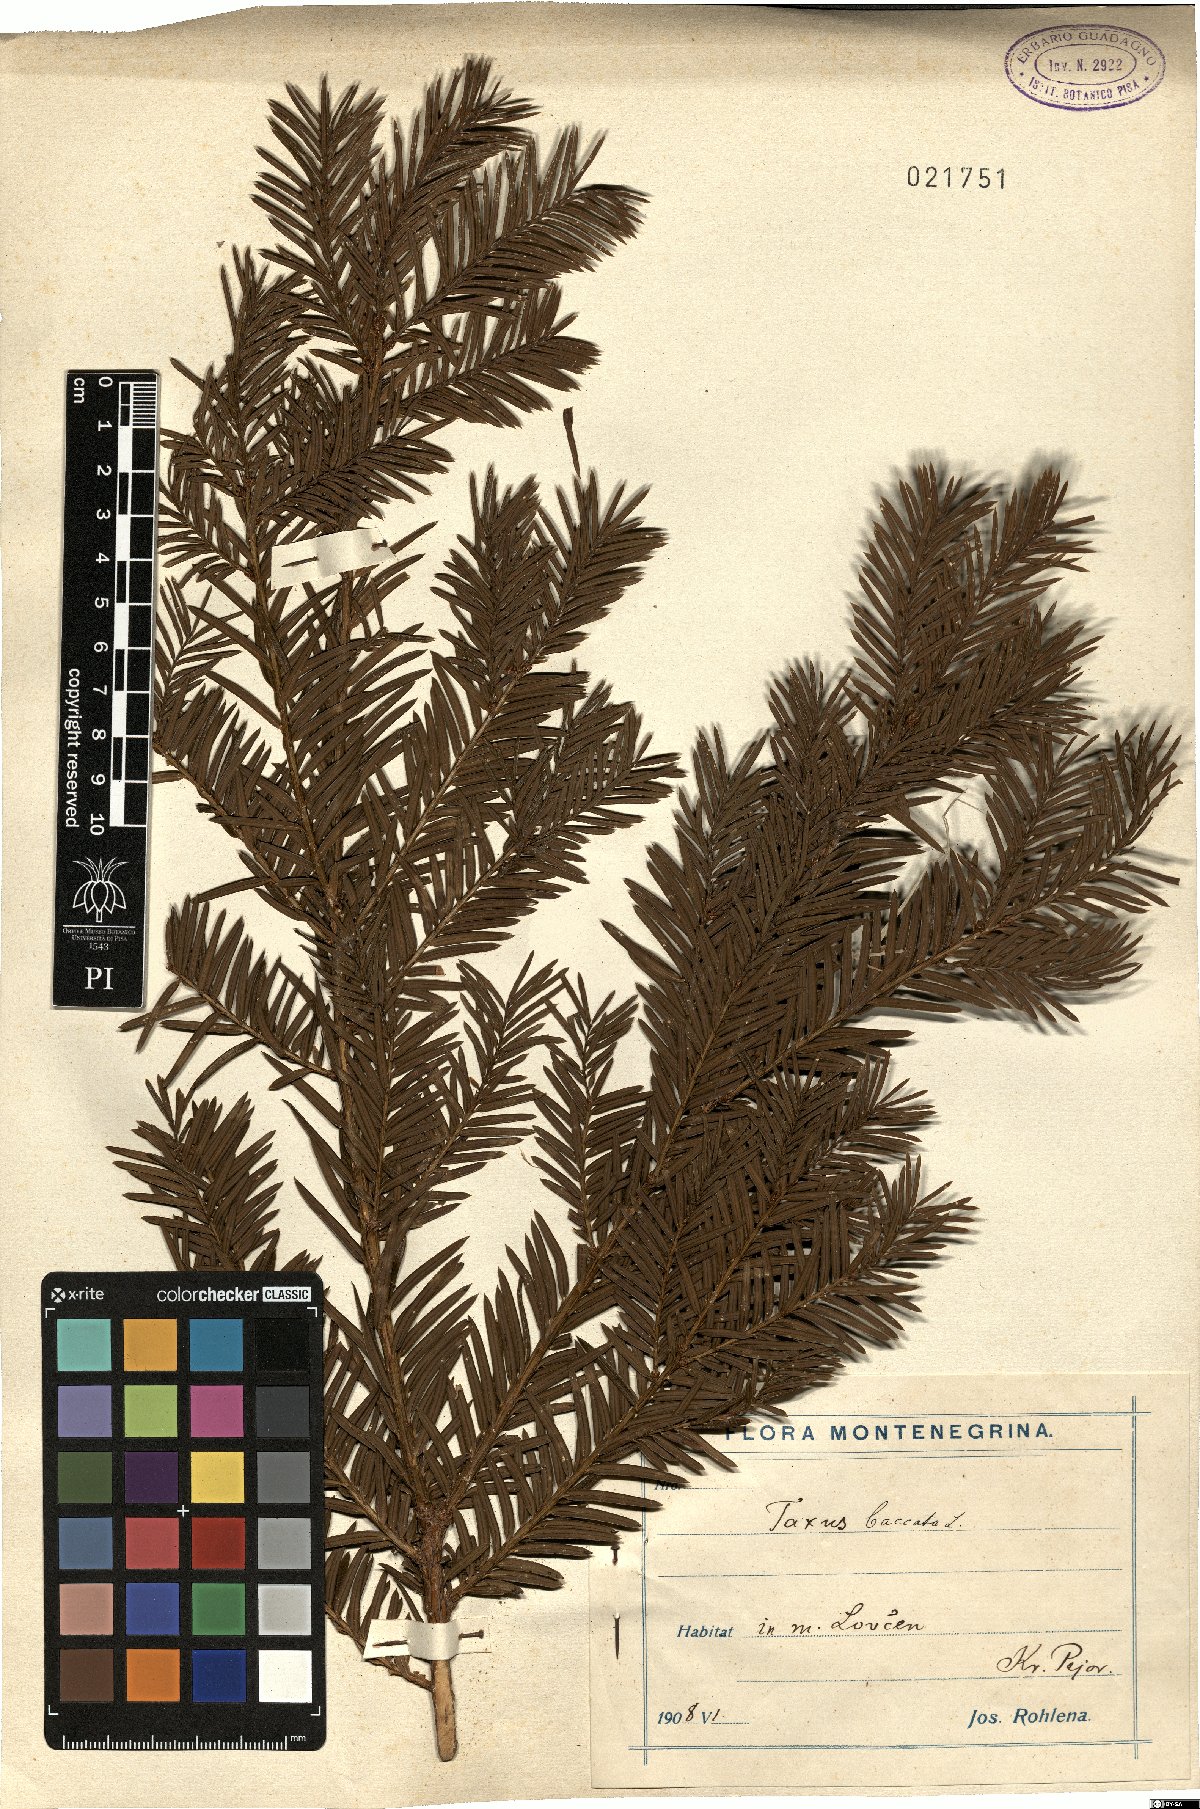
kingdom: Plantae
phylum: Tracheophyta
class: Pinopsida
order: Pinales
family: Taxaceae
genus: Taxus
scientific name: Taxus baccata
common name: Yew
